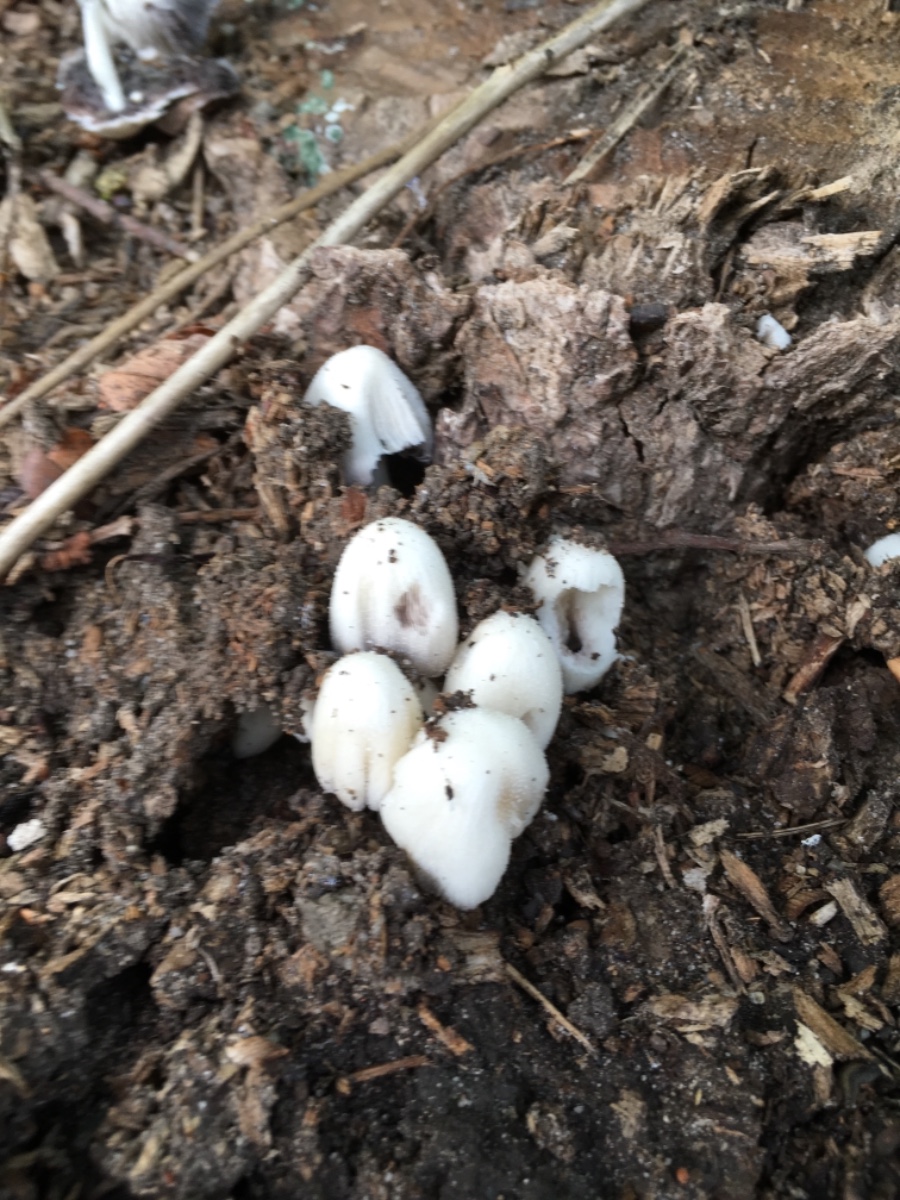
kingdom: Fungi
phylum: Basidiomycota
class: Agaricomycetes
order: Agaricales
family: Psathyrellaceae
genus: Coprinellus
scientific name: Coprinellus micaceus
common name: glimmer-blækhat
